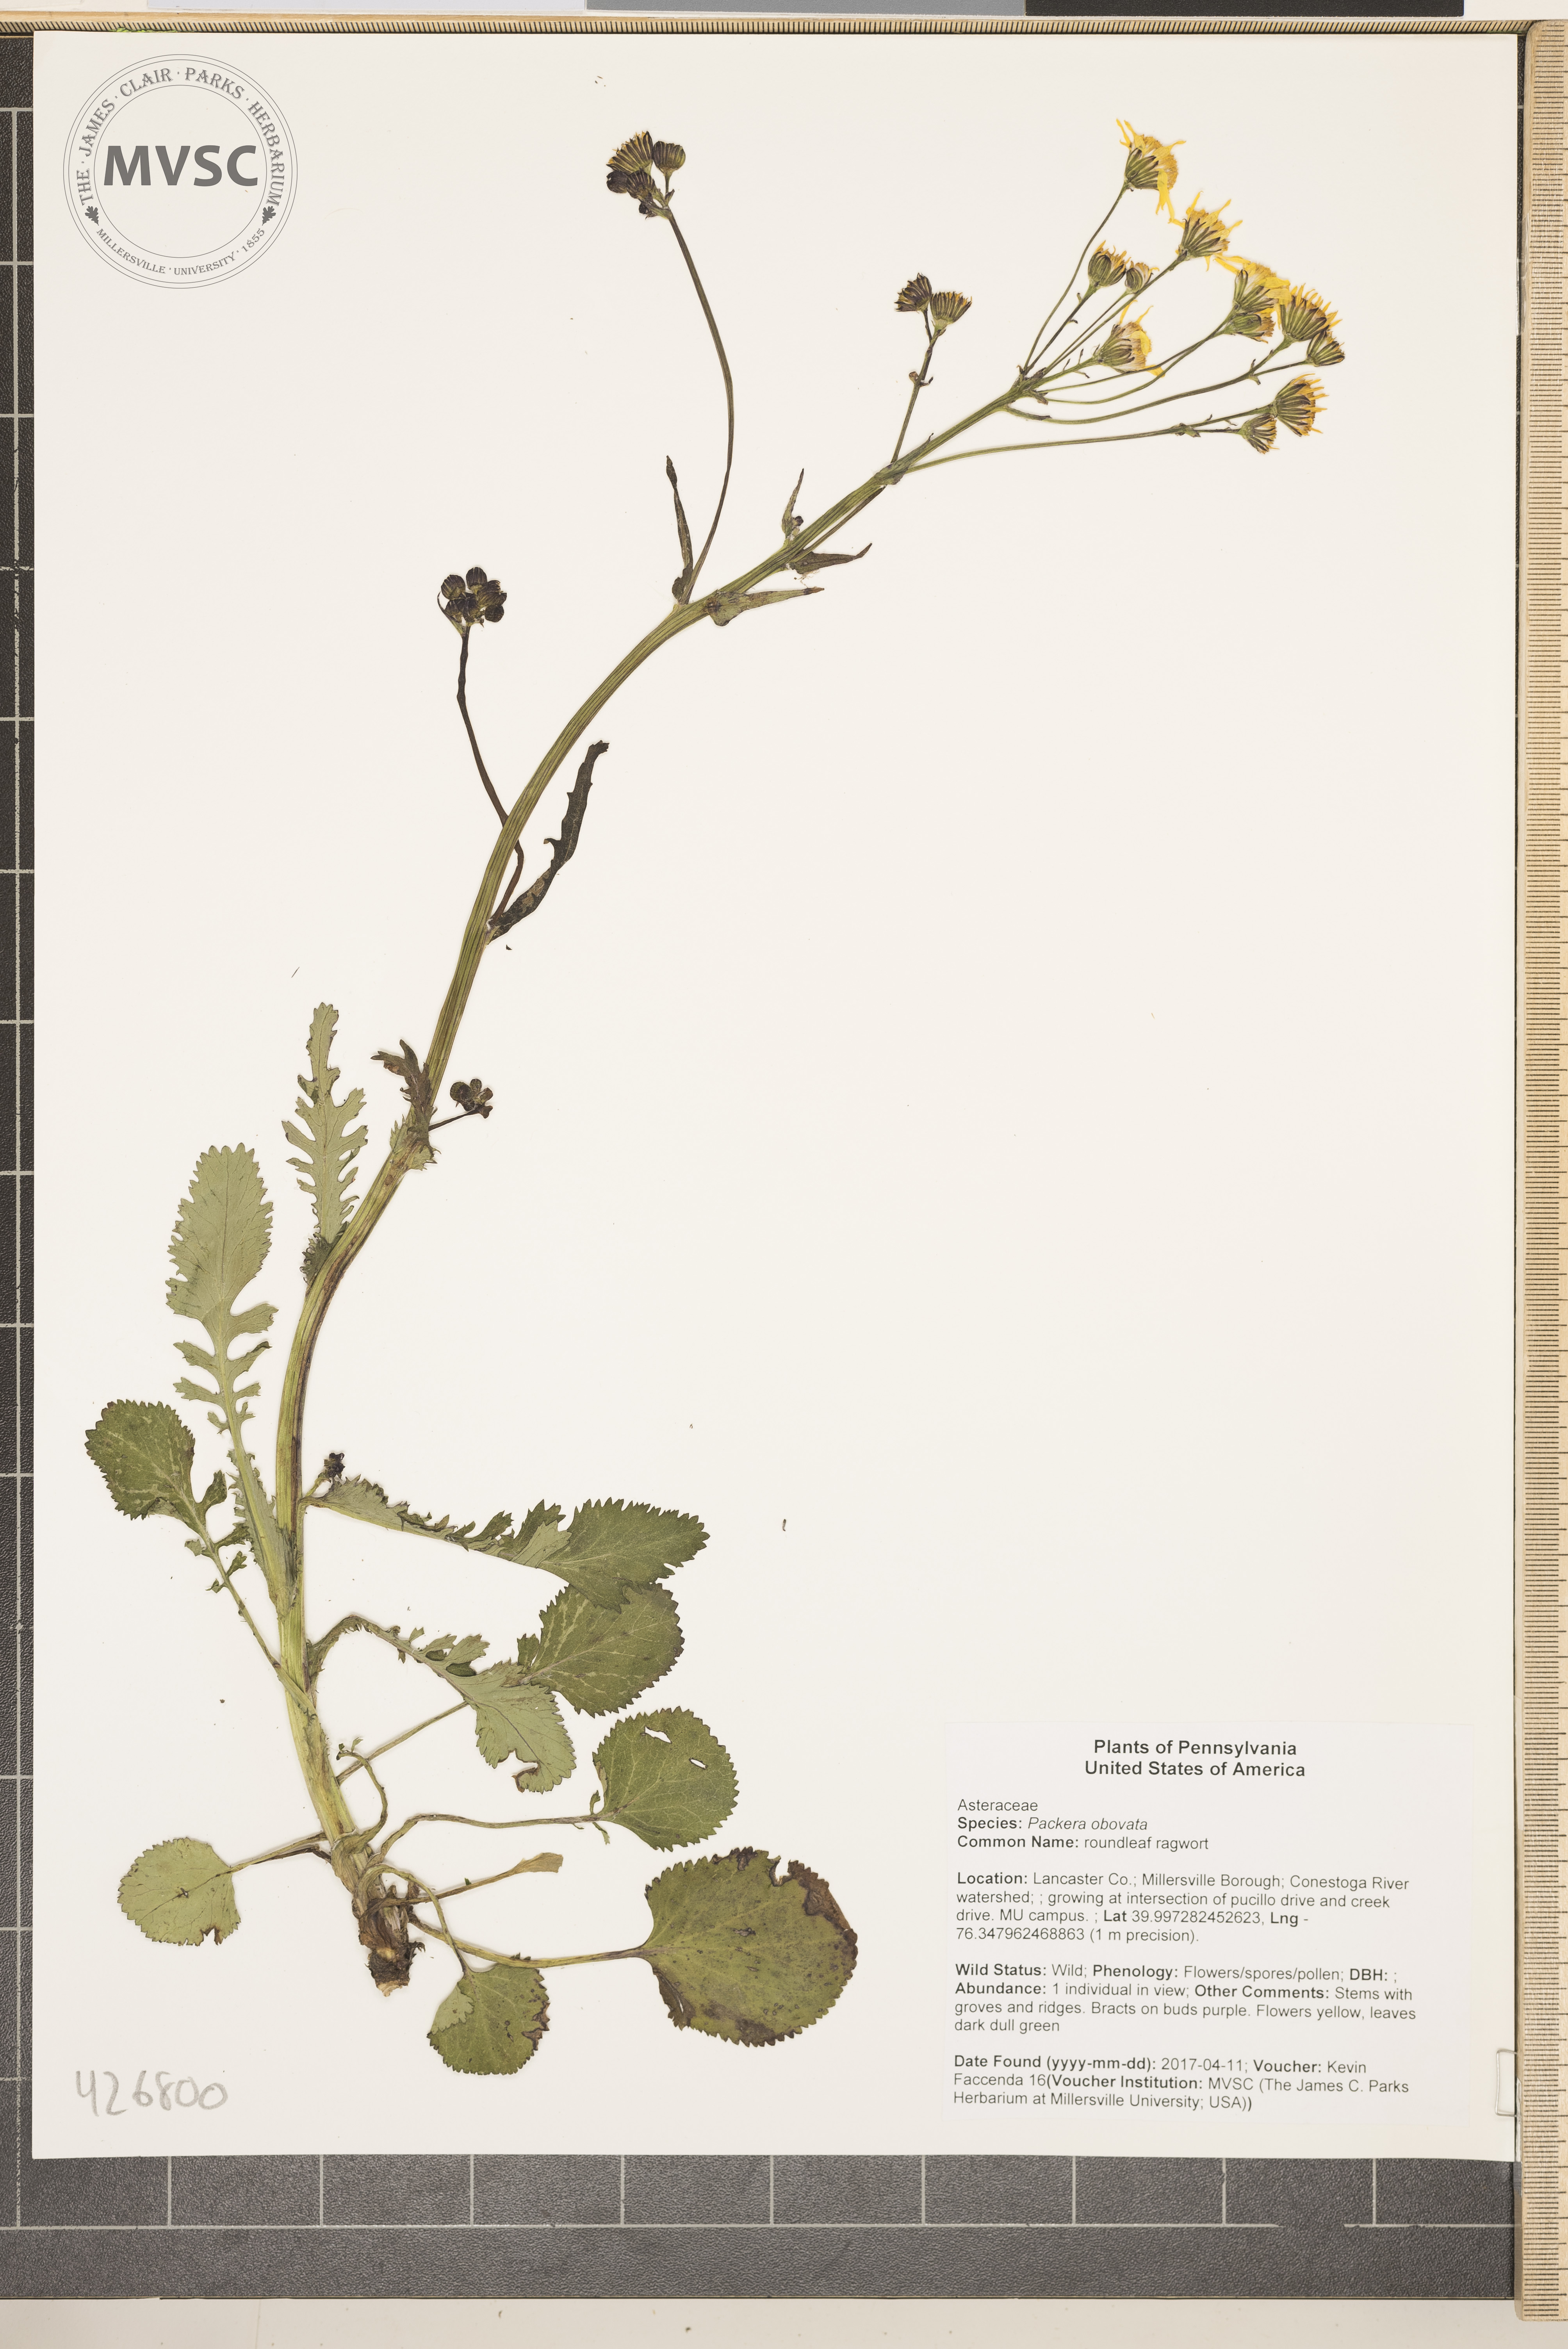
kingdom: Plantae
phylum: Tracheophyta
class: Magnoliopsida
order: Asterales
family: Asteraceae
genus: Packera
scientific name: Packera obovata
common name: roundleaf ragwort
